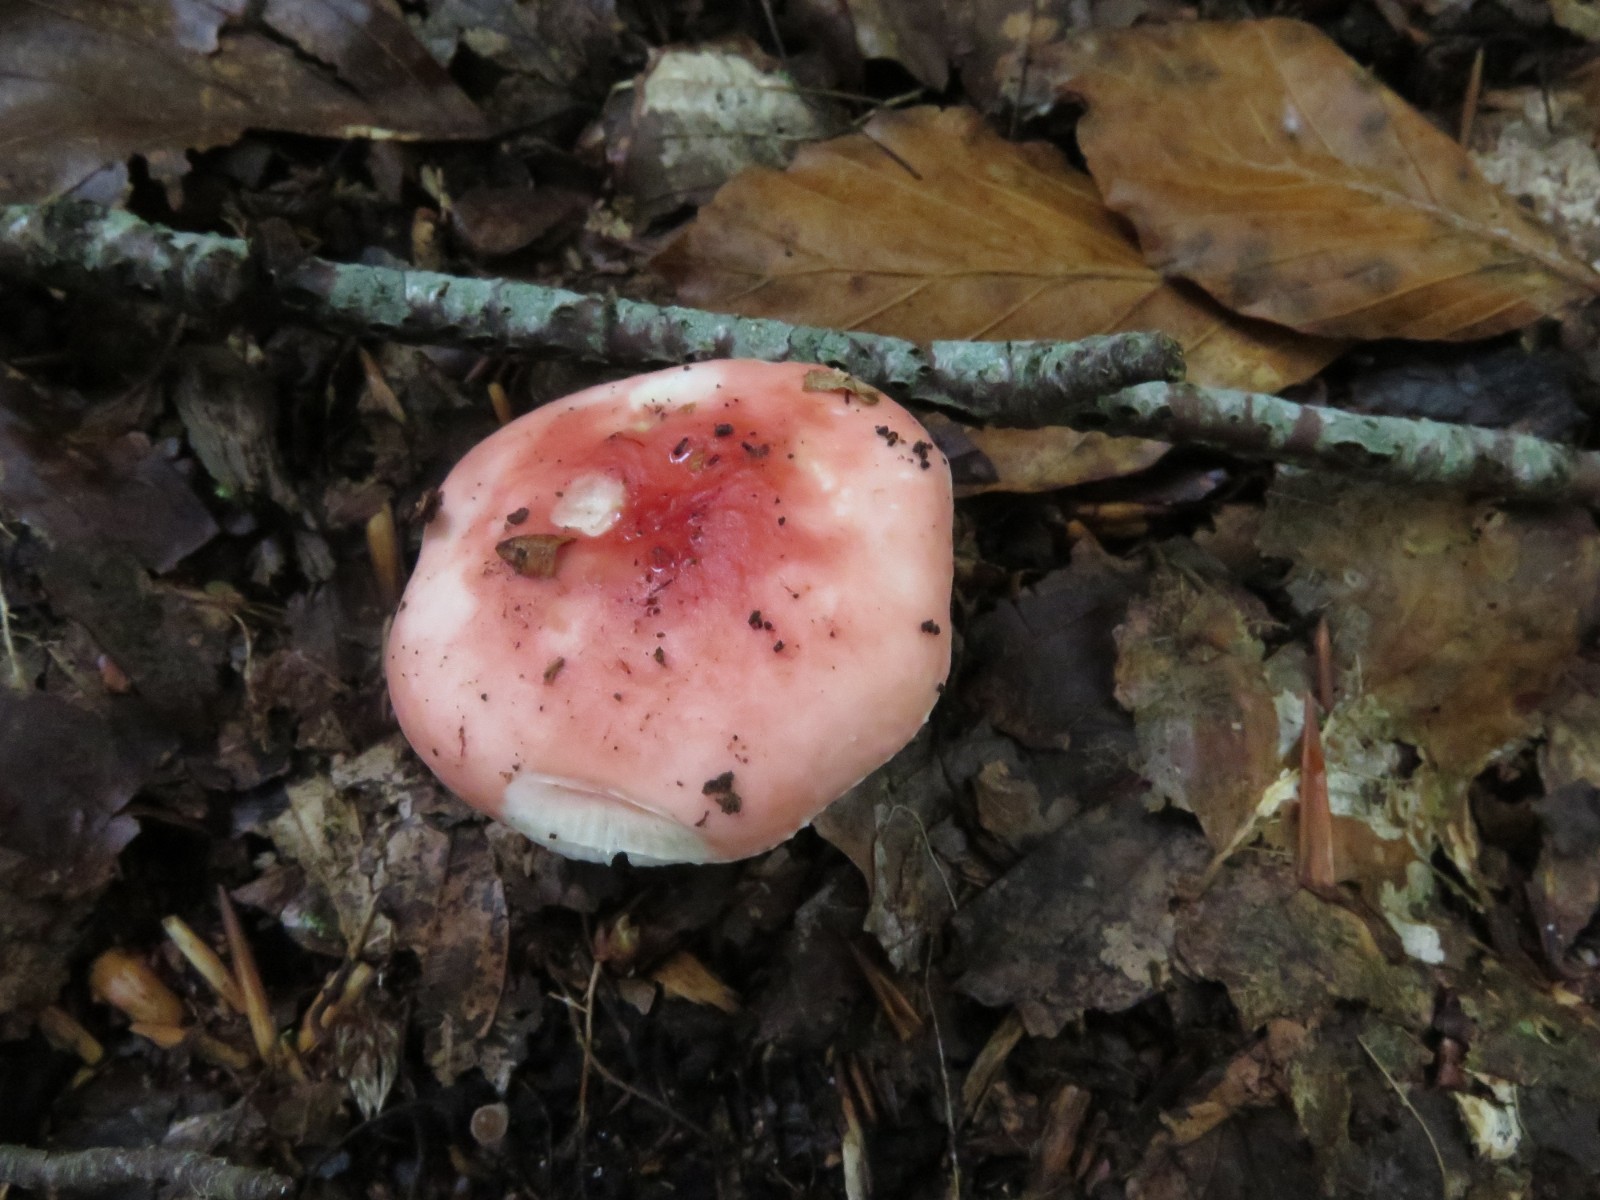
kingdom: Fungi
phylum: Basidiomycota
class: Agaricomycetes
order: Russulales
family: Russulaceae
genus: Russula
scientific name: Russula nobilis
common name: lille gift-skørhat
